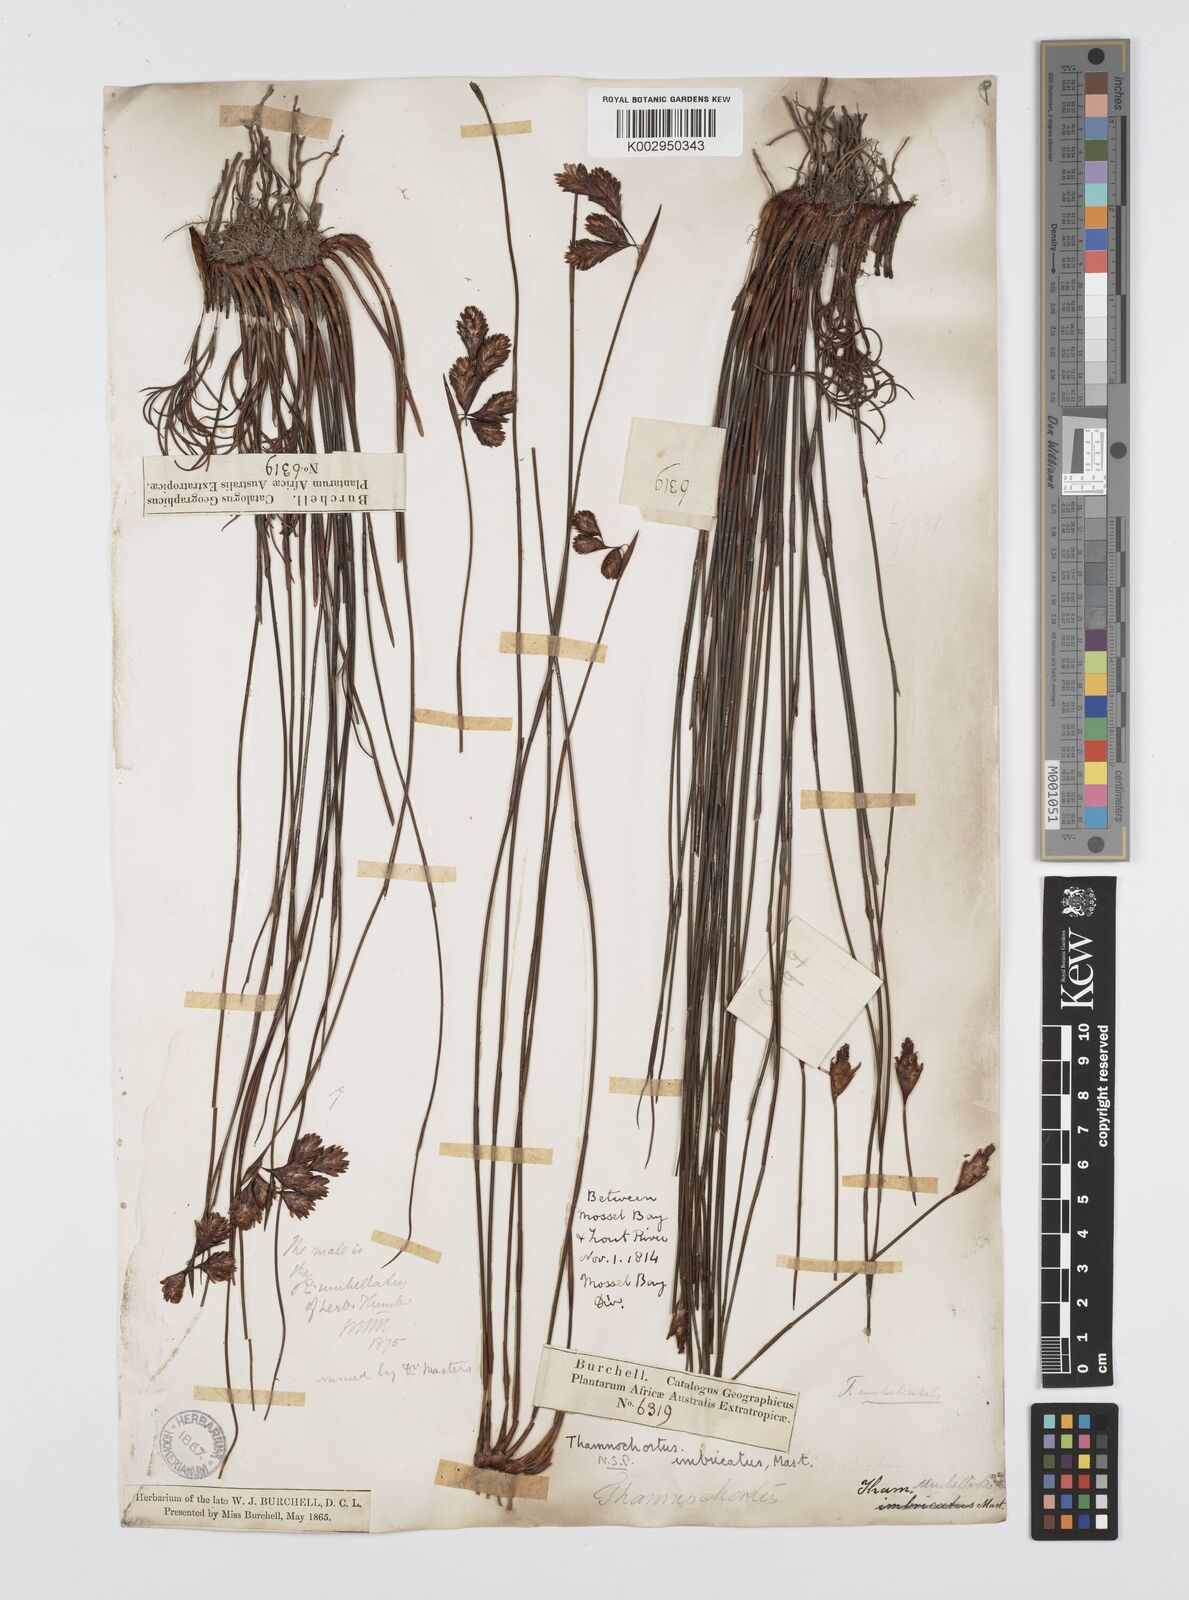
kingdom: Plantae
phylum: Tracheophyta
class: Liliopsida
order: Poales
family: Restionaceae
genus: Staberoha
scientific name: Staberoha distachyos
